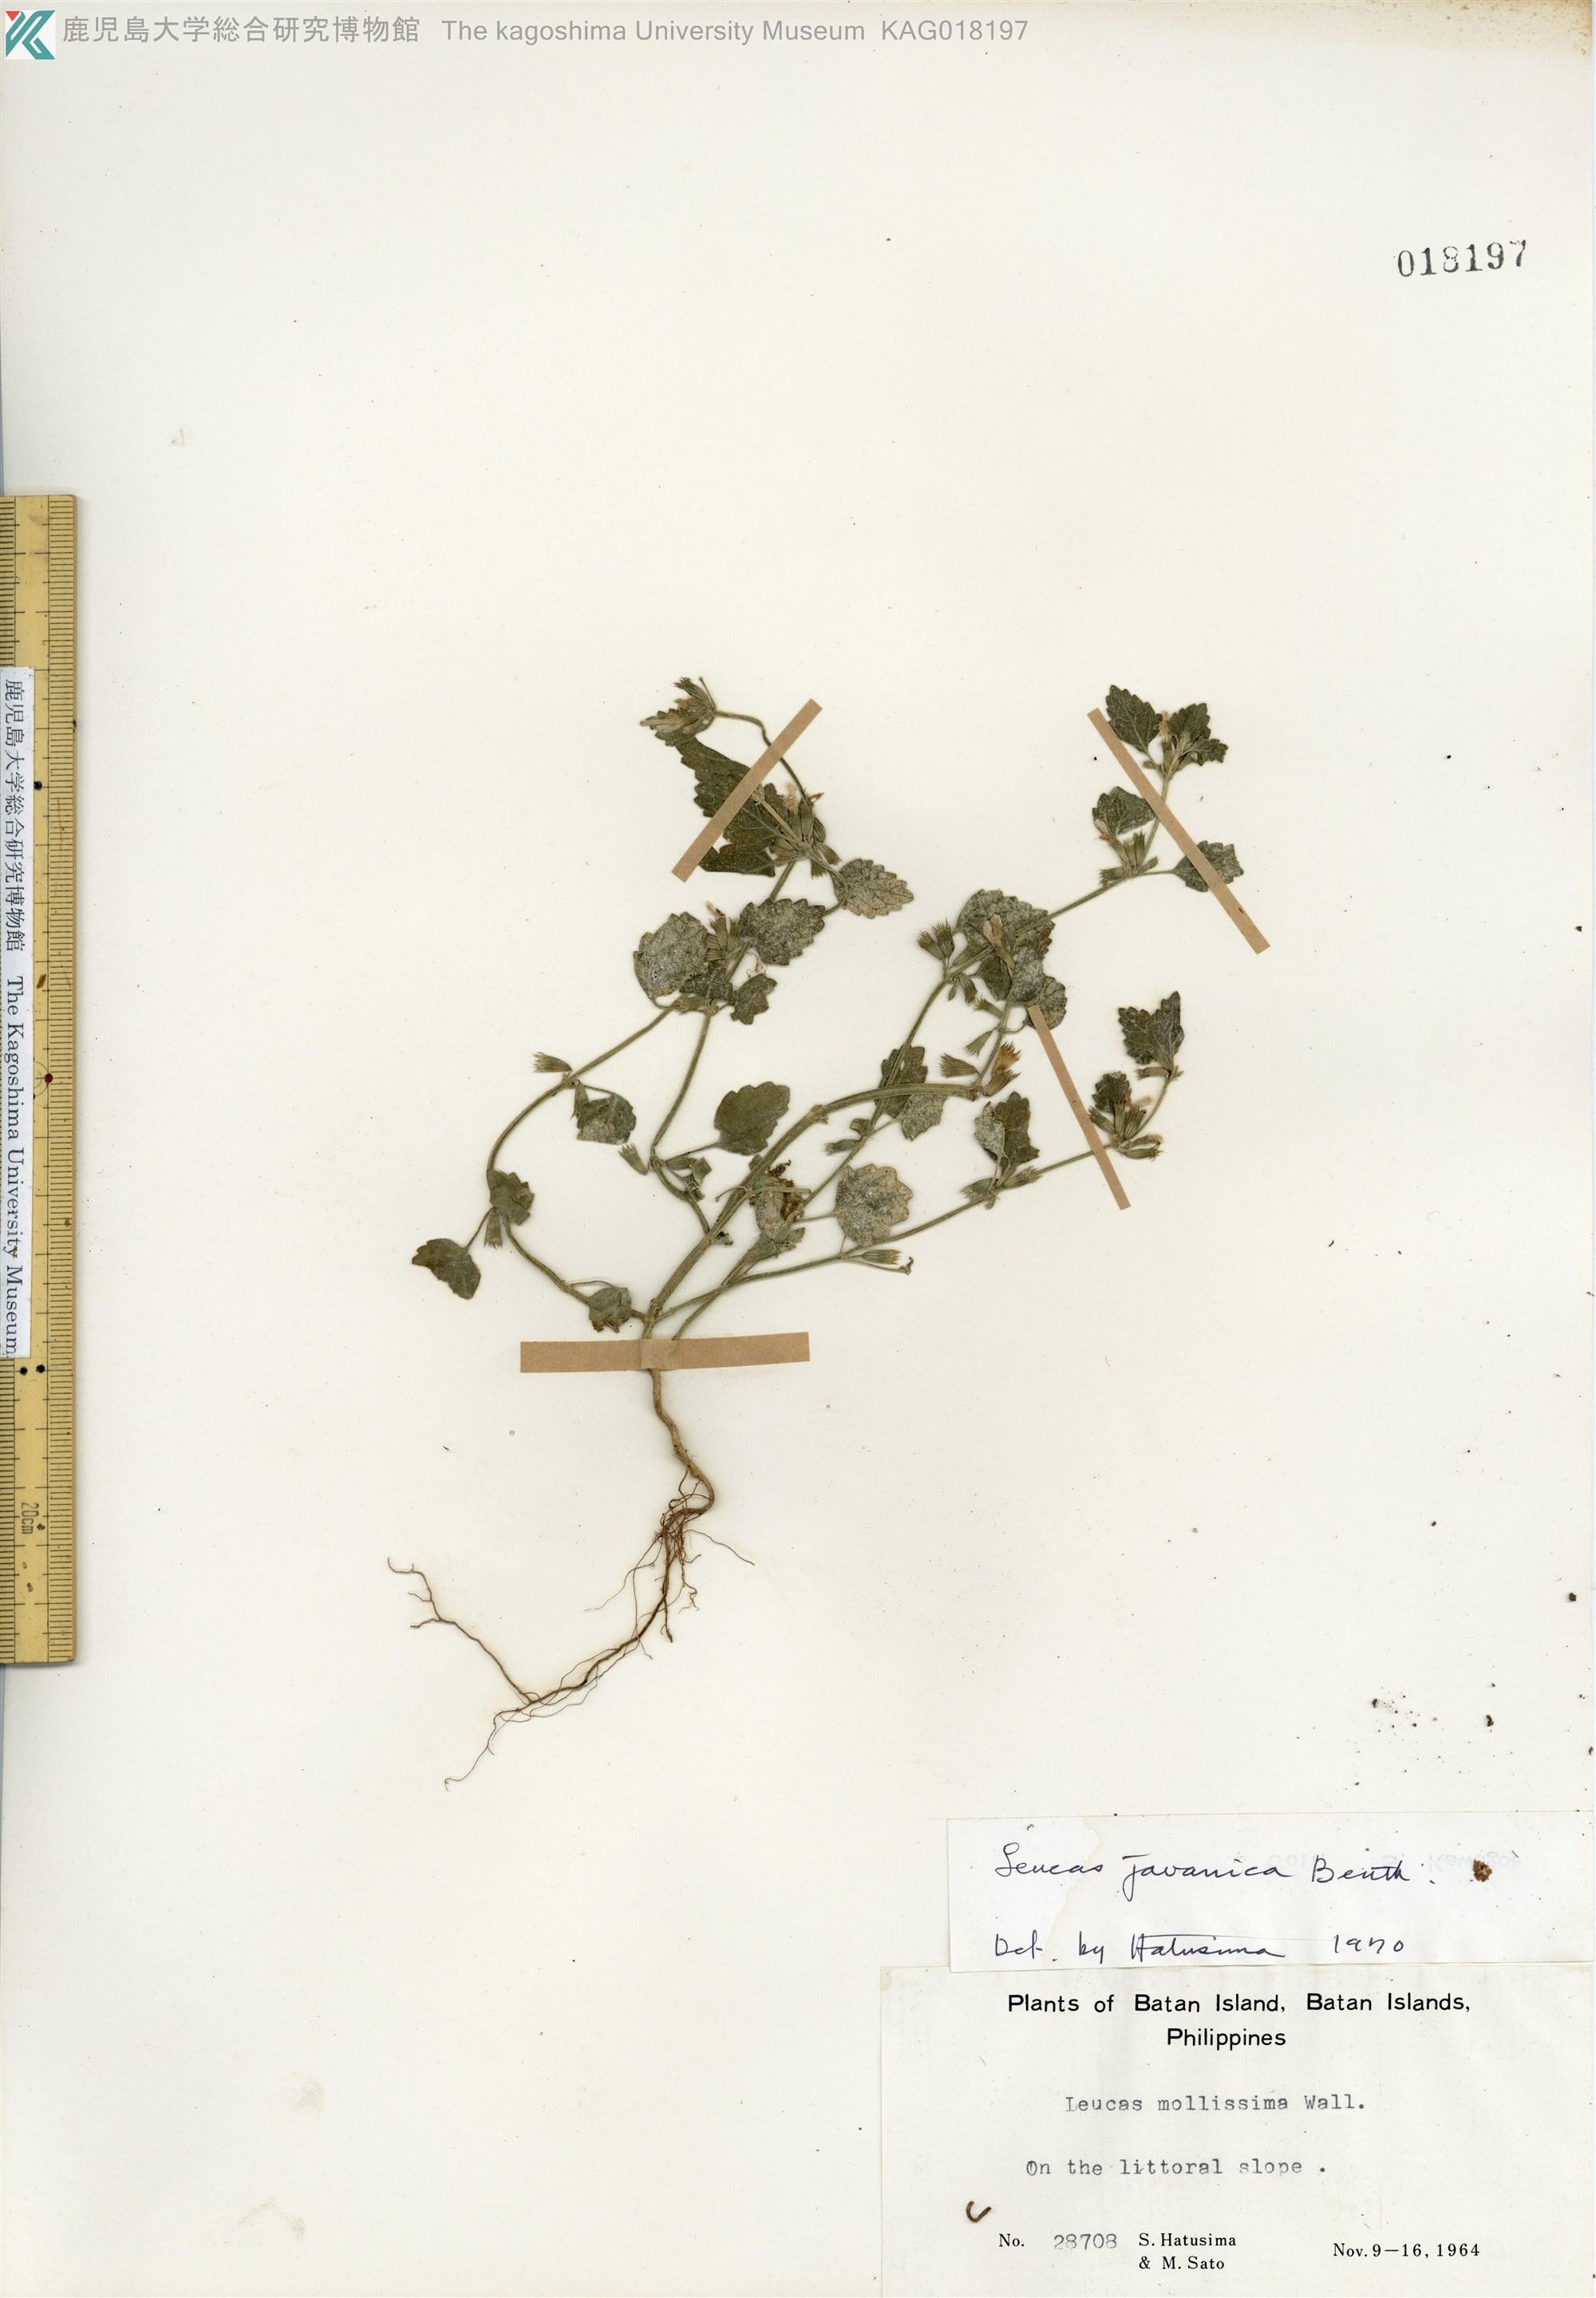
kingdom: Plantae
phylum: Tracheophyta
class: Magnoliopsida
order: Lamiales
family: Lamiaceae
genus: Leucas
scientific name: Leucas chinensis
